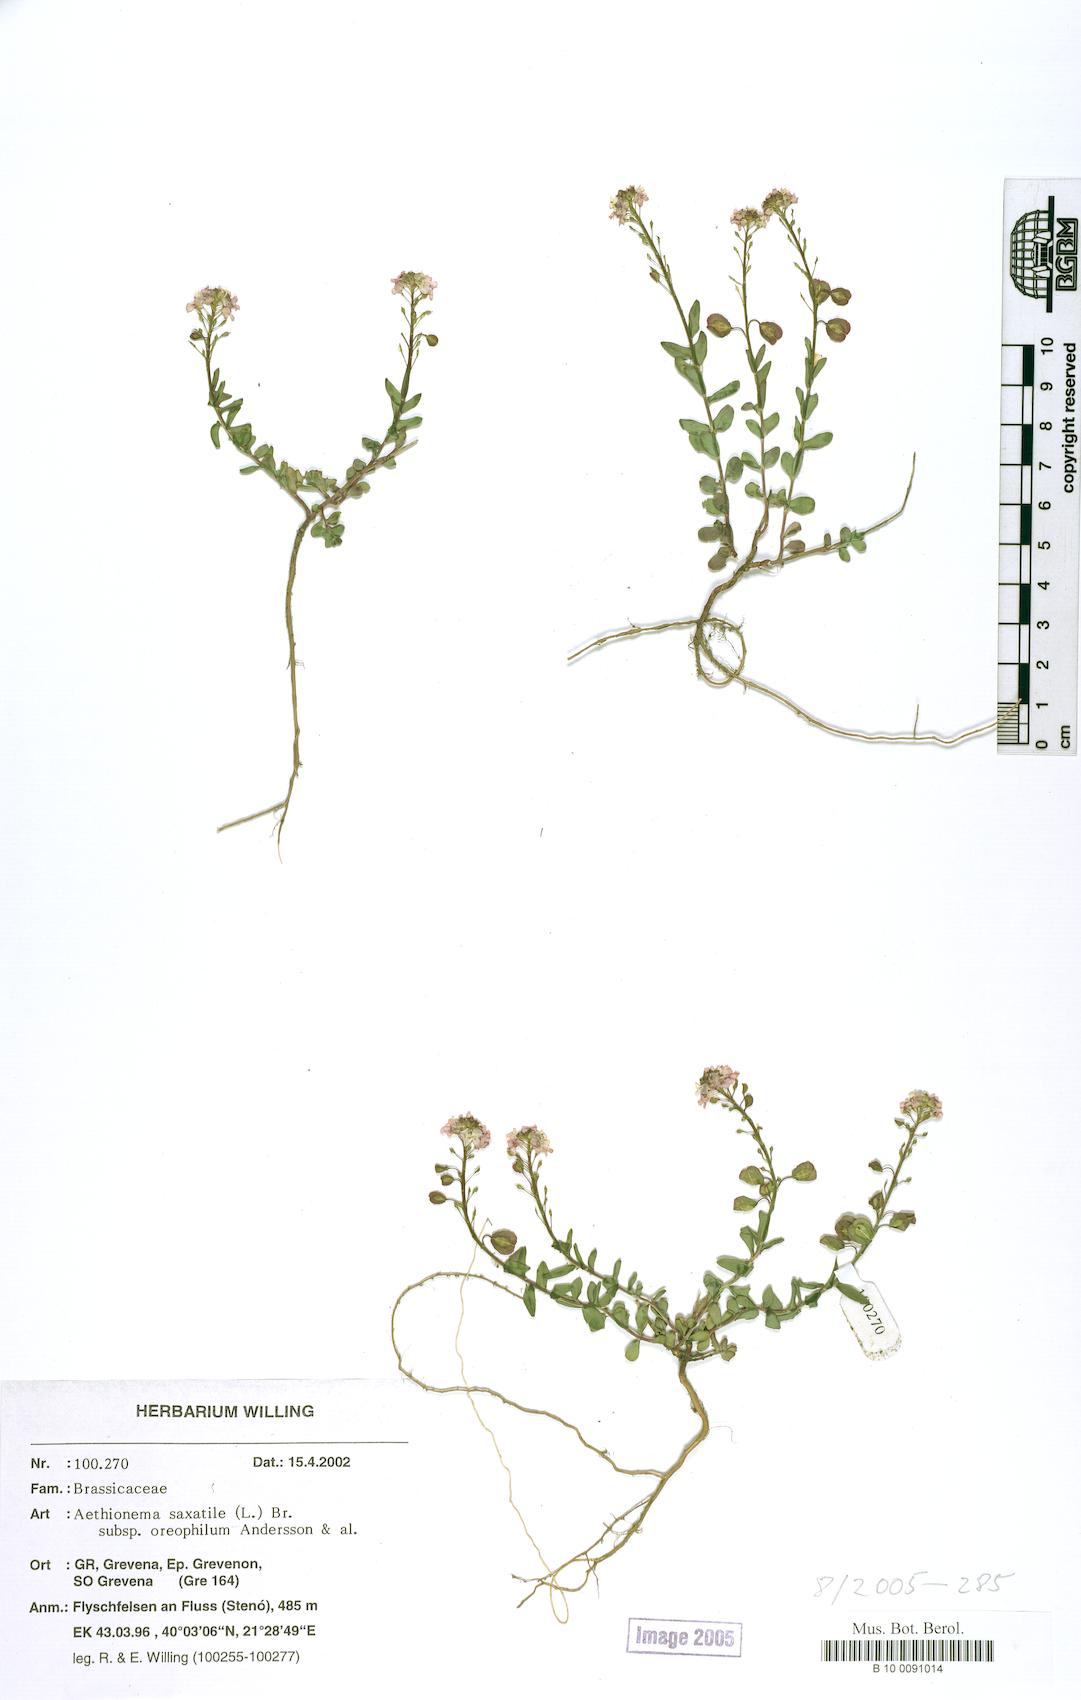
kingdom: Plantae
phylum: Tracheophyta
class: Magnoliopsida
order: Brassicales
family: Brassicaceae
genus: Aethionema
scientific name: Aethionema saxatile
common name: Burnt candytuft
